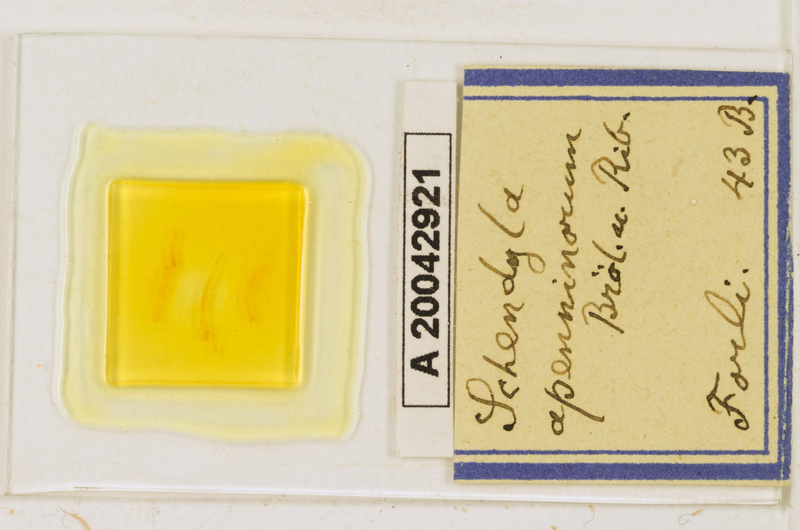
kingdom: Animalia
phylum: Arthropoda
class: Chilopoda
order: Geophilomorpha
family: Schendylidae
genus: Schendyla
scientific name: Schendyla apenninorum
